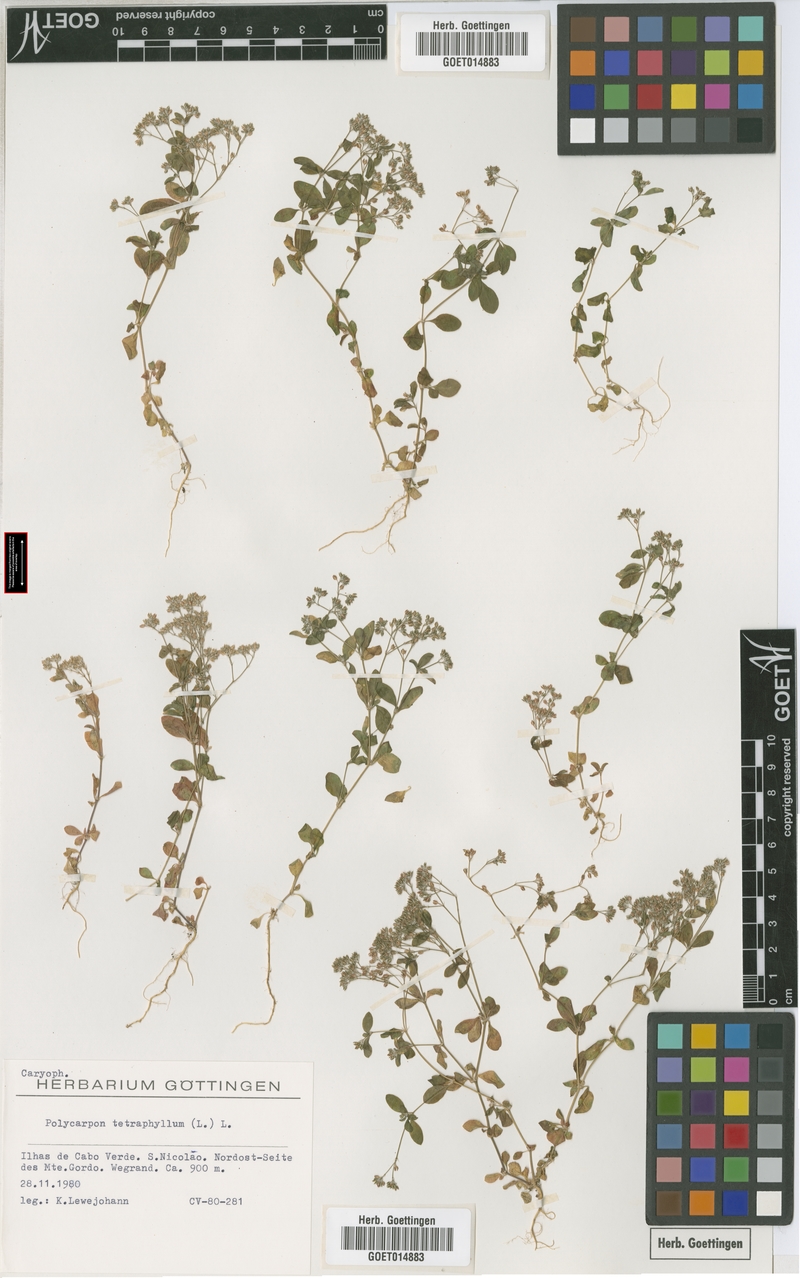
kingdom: Plantae
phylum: Tracheophyta
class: Magnoliopsida
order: Caryophyllales
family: Caryophyllaceae
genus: Polycarpon
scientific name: Polycarpon tetraphyllum
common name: Four-leaved all-seed
